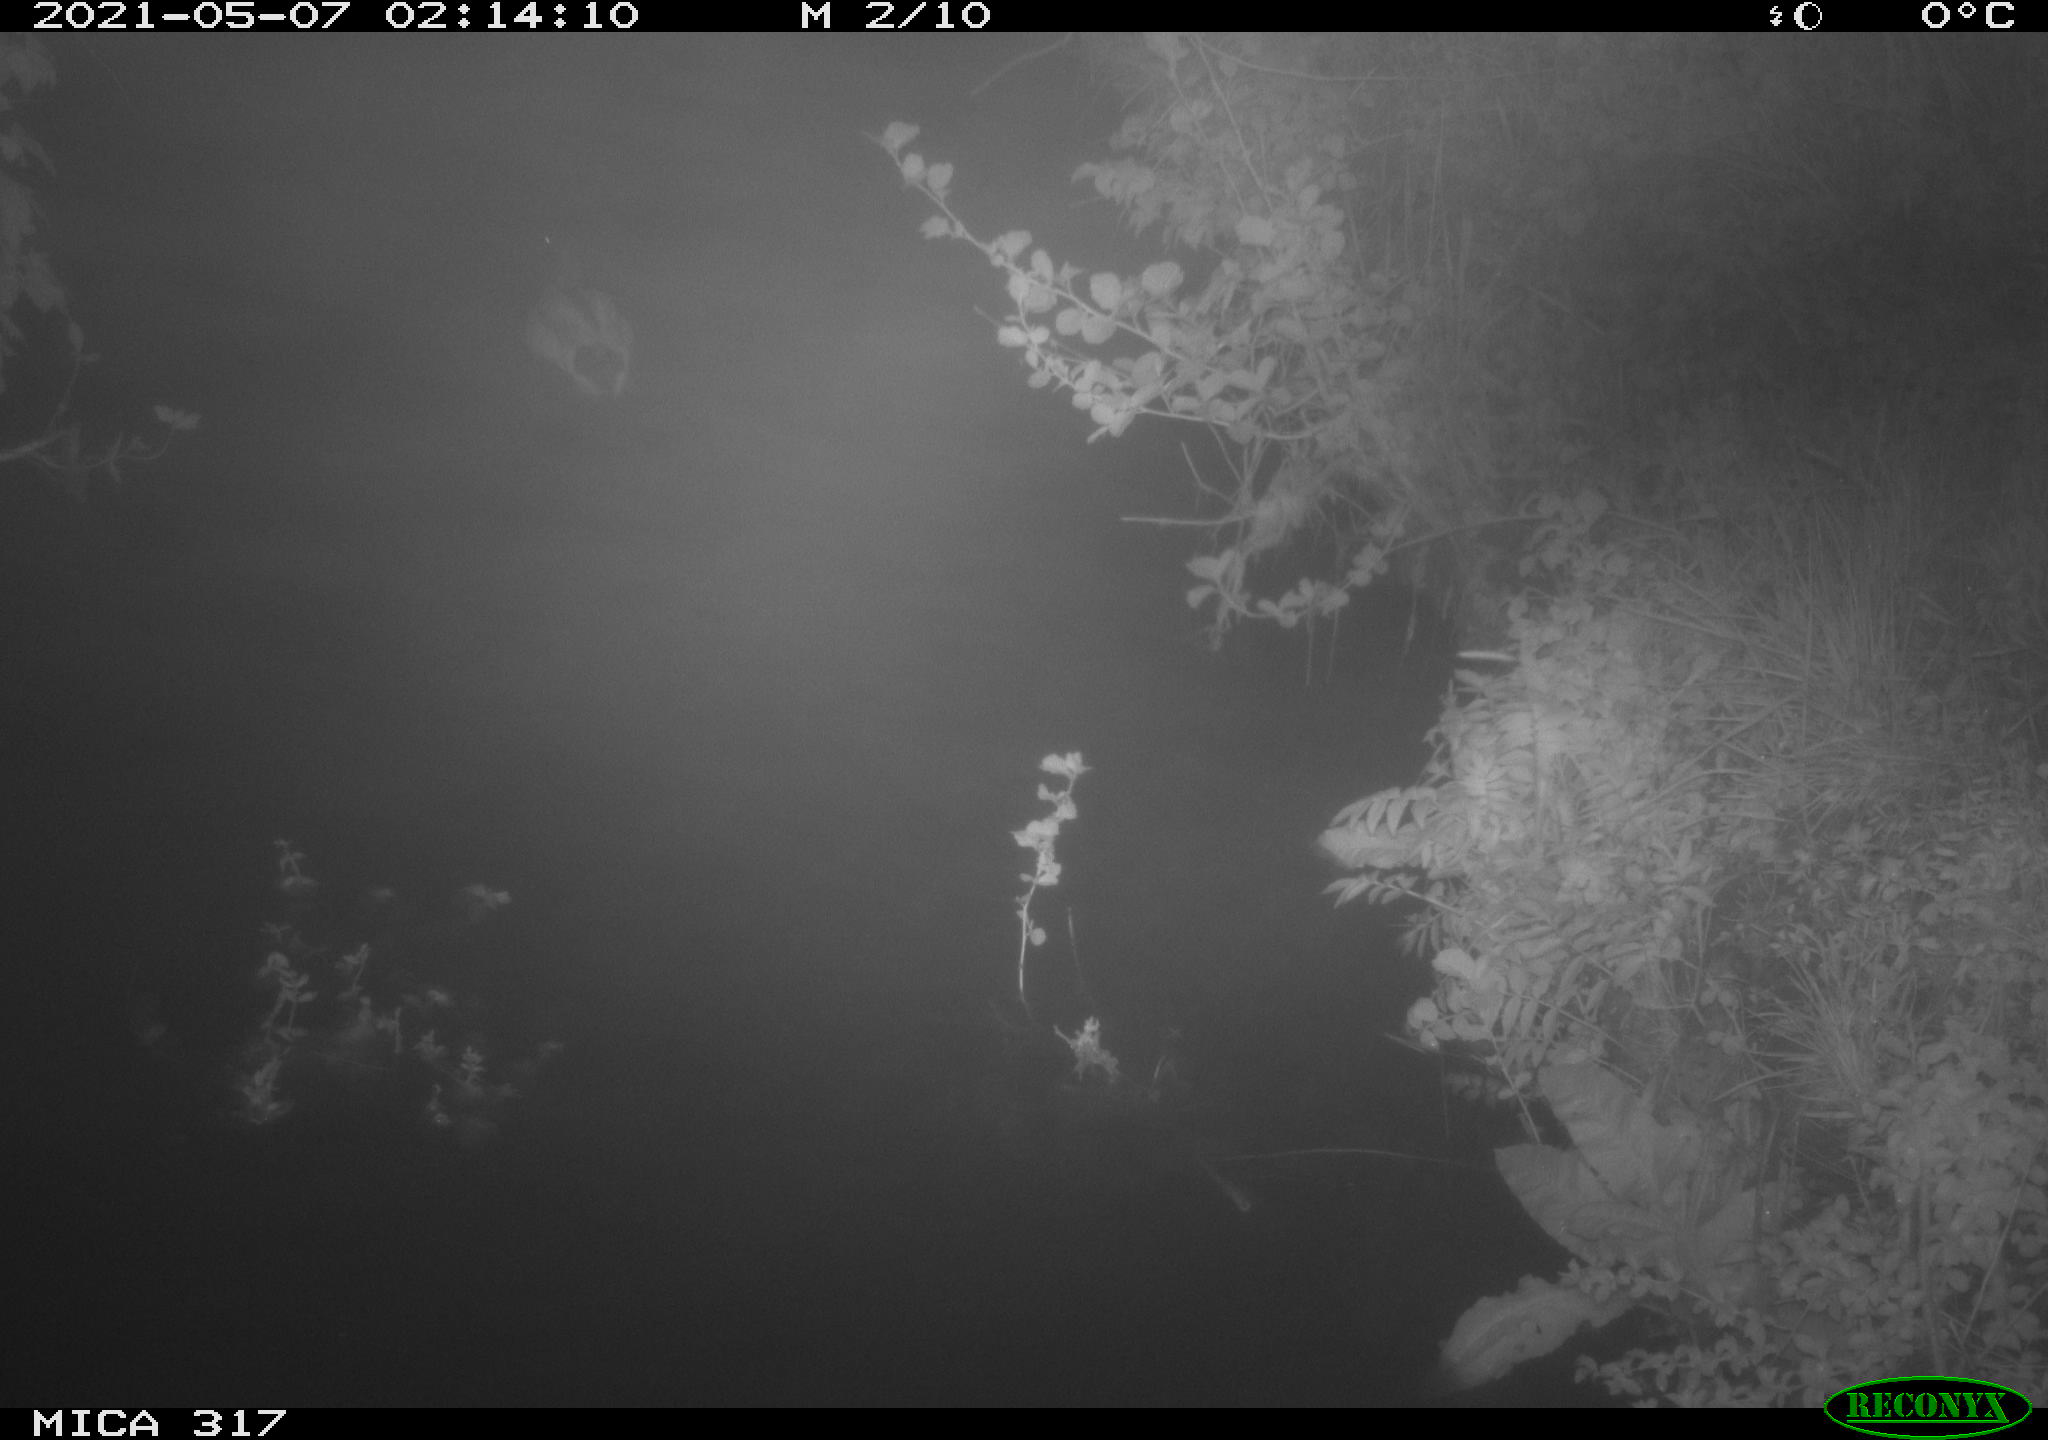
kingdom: Animalia
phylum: Chordata
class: Aves
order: Anseriformes
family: Anatidae
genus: Anas
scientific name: Anas
